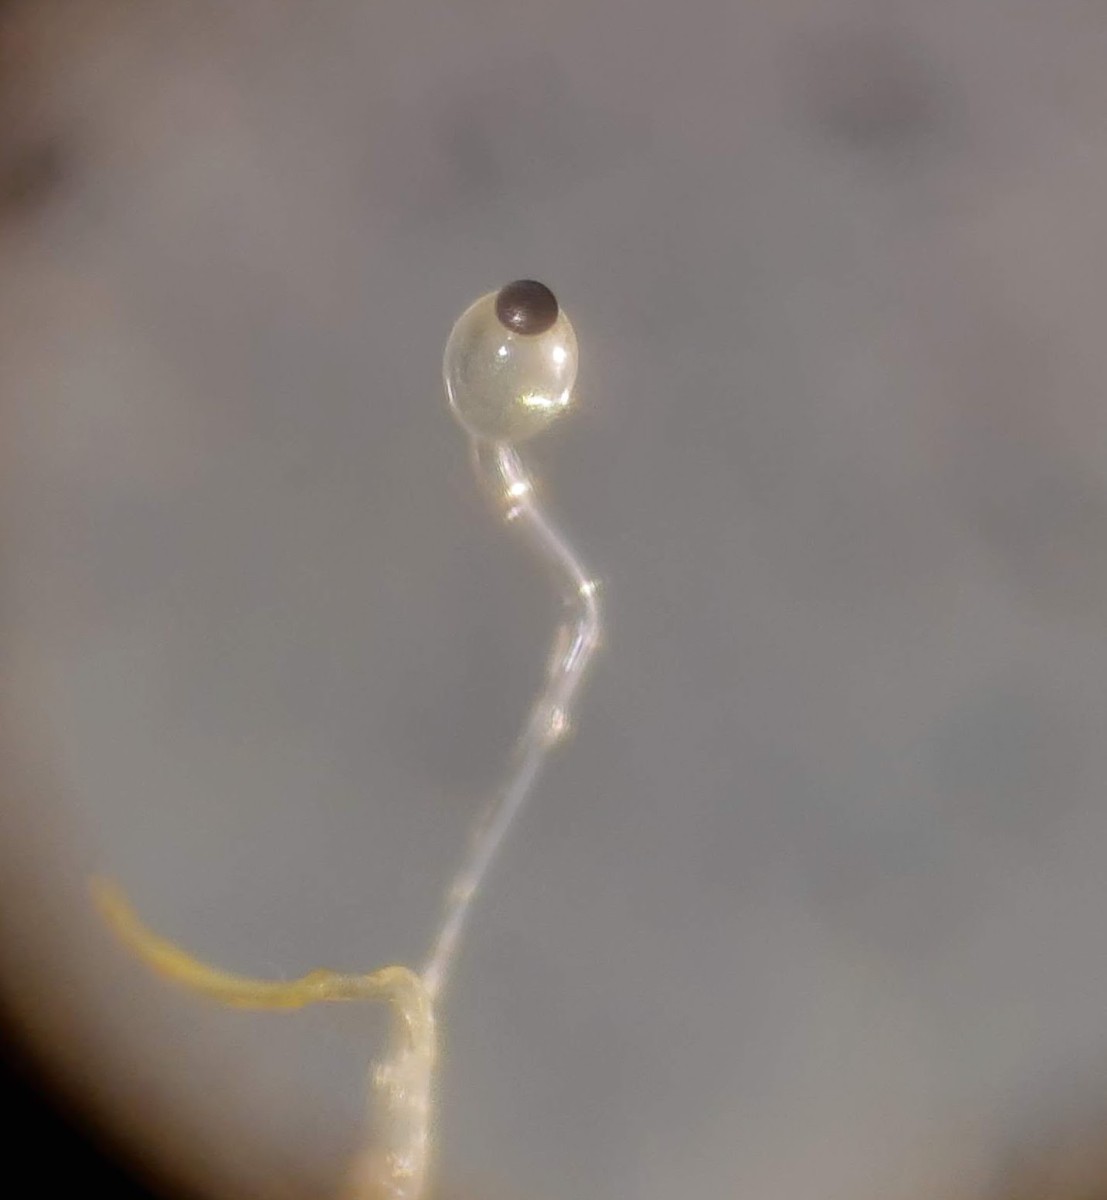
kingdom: Fungi
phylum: Mucoromycota
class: Mucoromycetes
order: Mucorales
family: Pilobolaceae
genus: Pilobolus
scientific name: Pilobolus crystallinus
